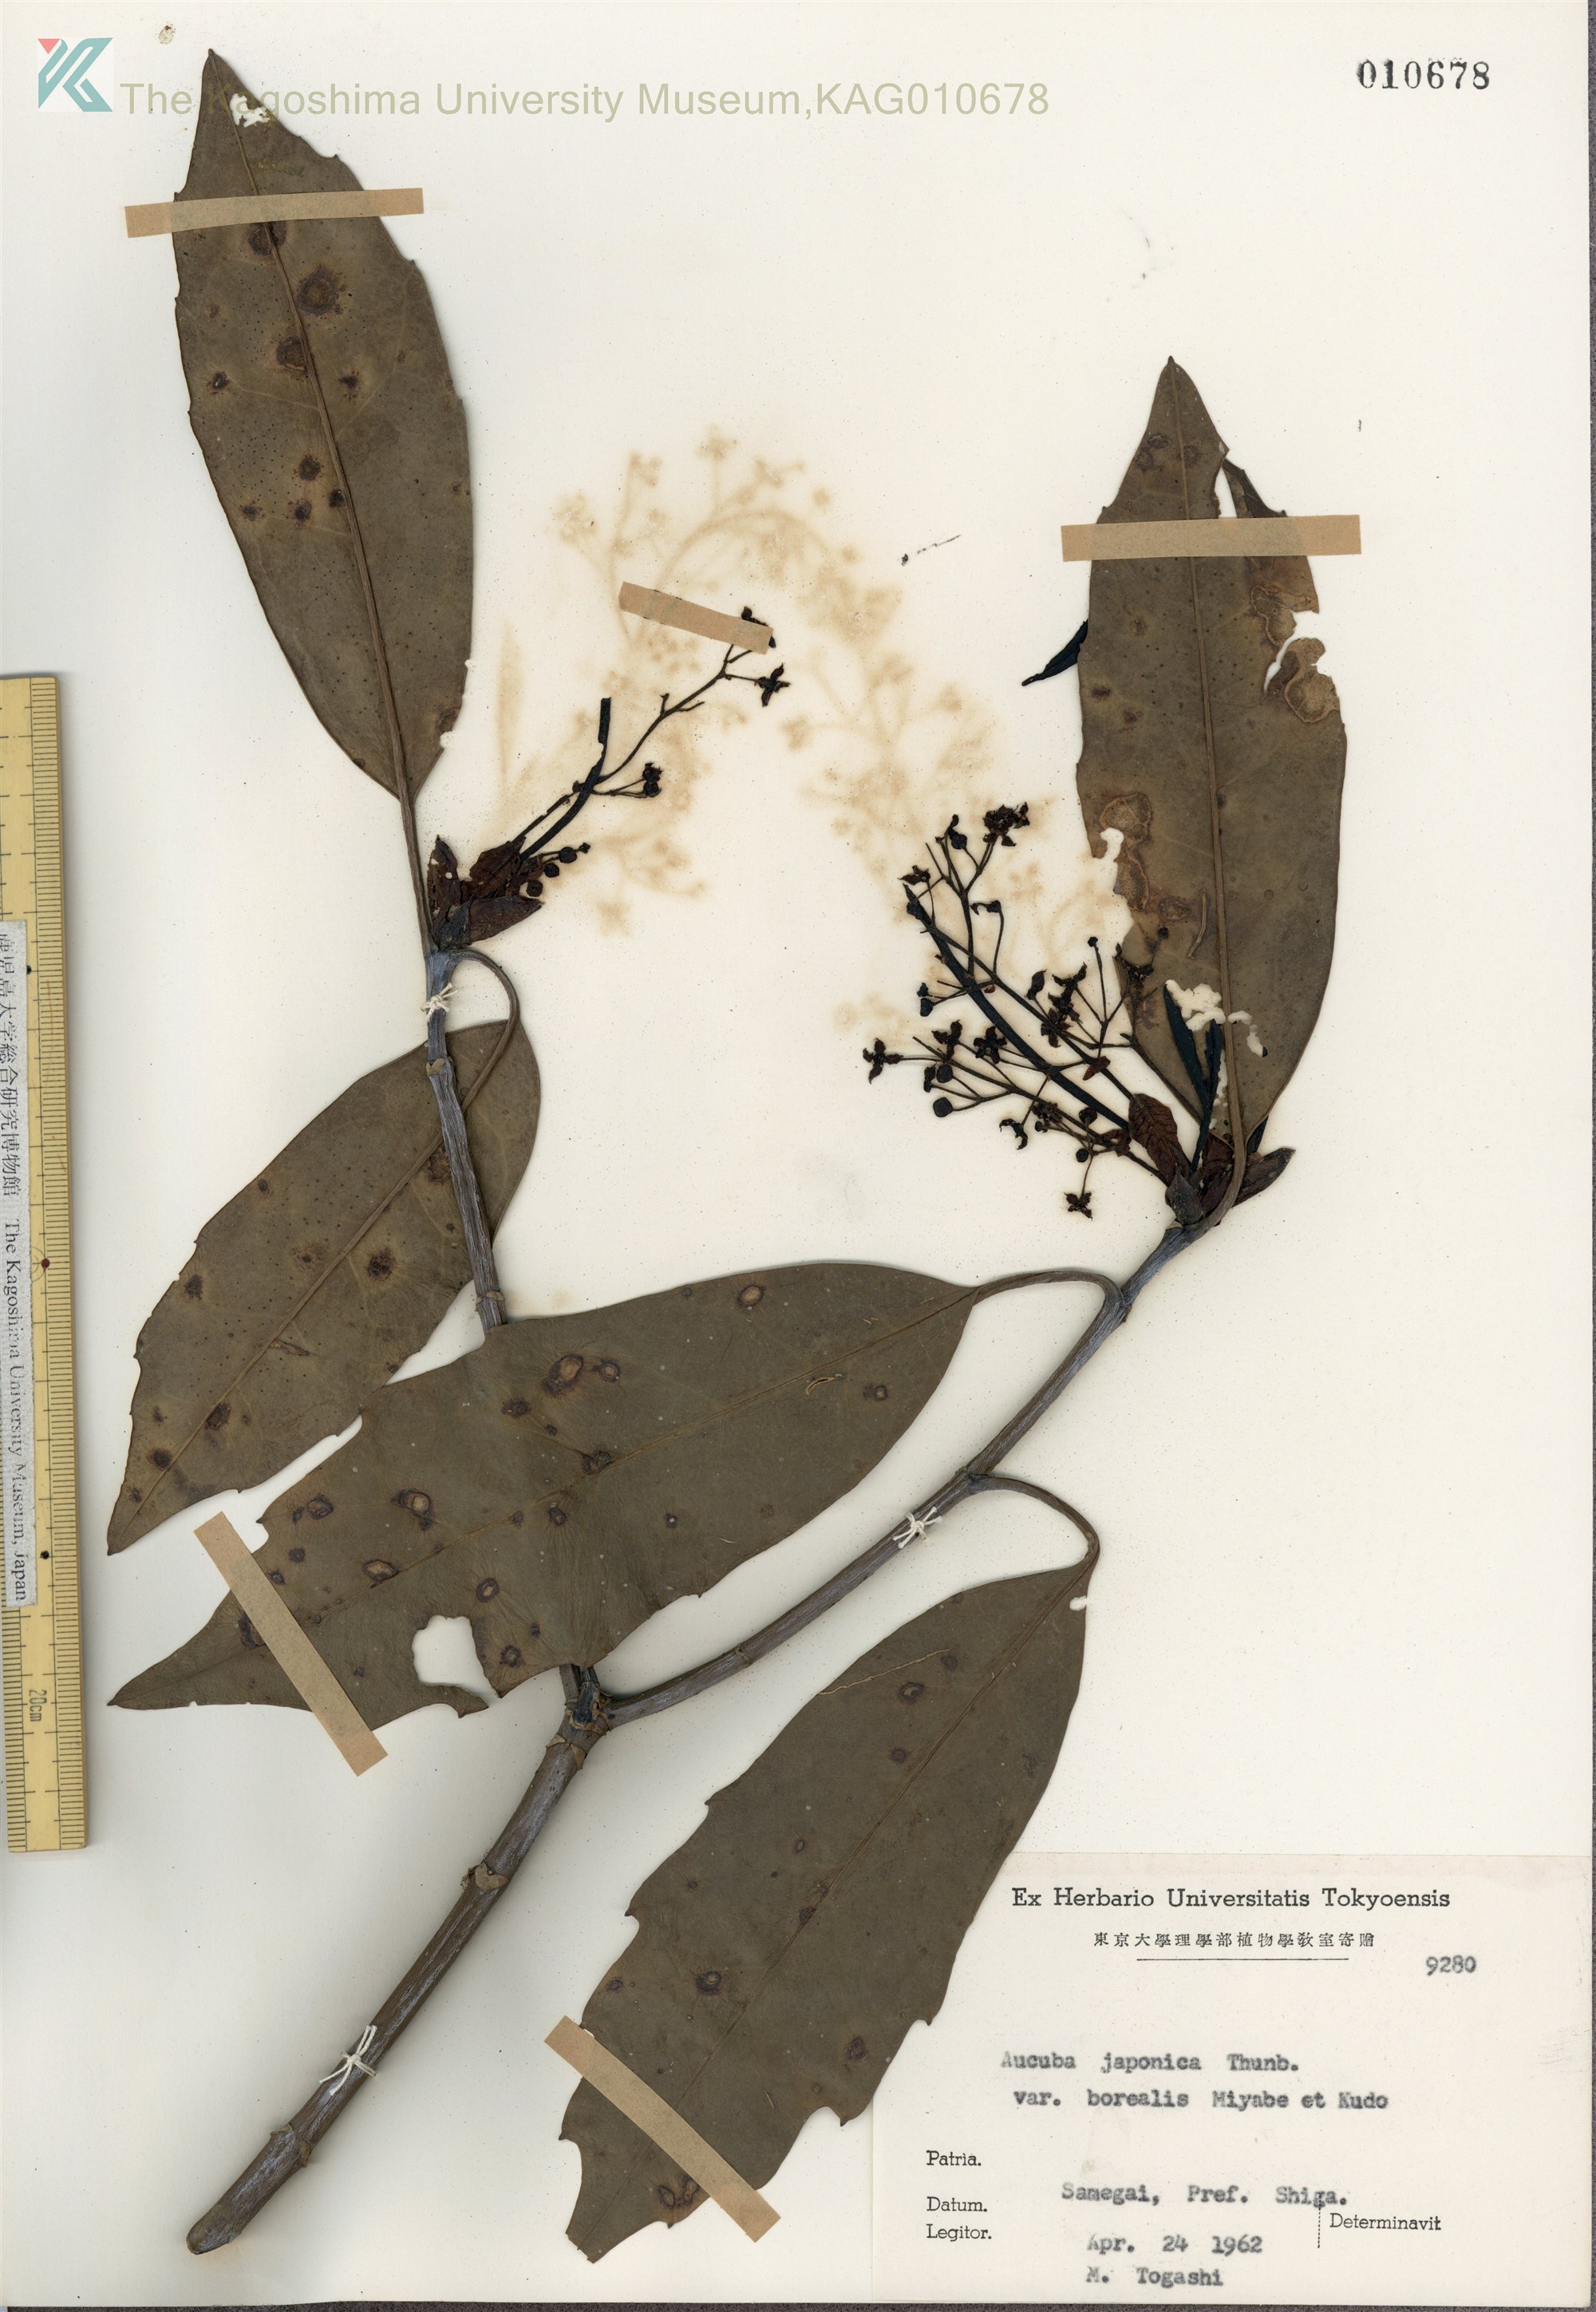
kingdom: Plantae
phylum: Tracheophyta
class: Magnoliopsida
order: Garryales
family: Garryaceae
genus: Aucuba
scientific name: Aucuba japonica
